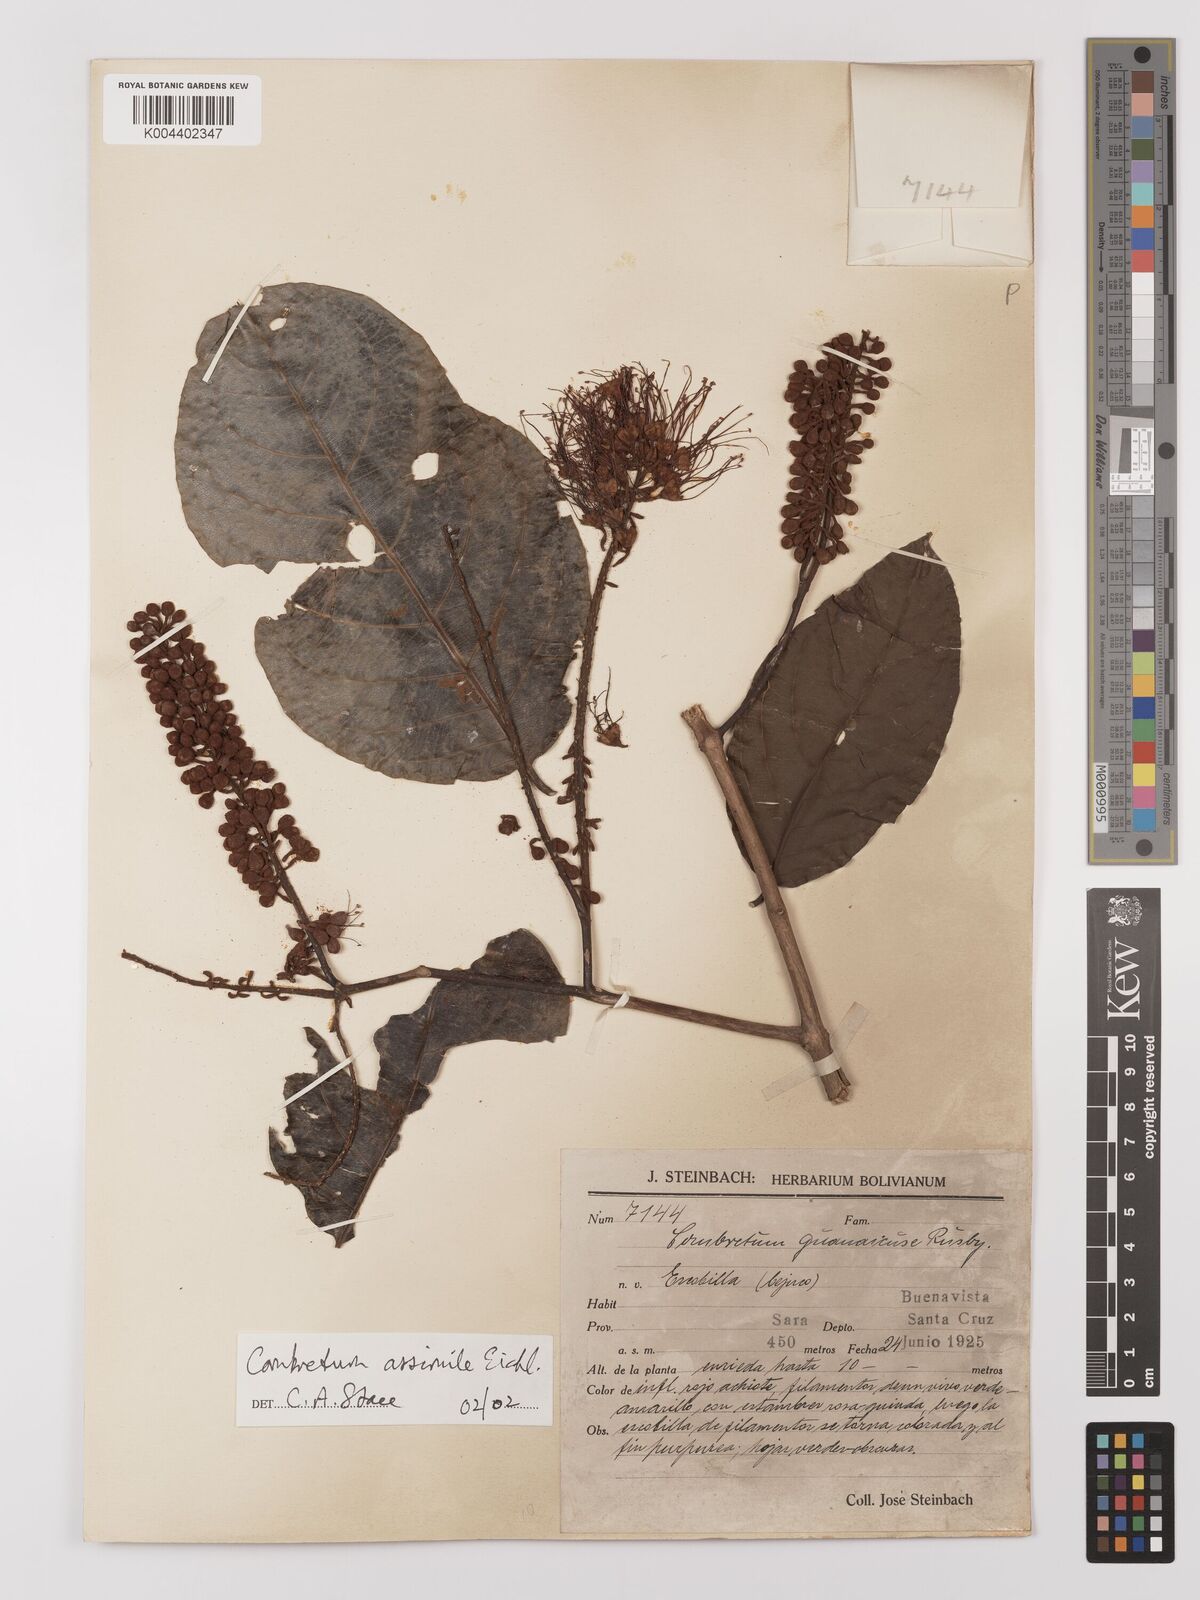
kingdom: Plantae
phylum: Tracheophyta
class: Magnoliopsida
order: Myrtales
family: Combretaceae
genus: Combretum
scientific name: Combretum assimile
